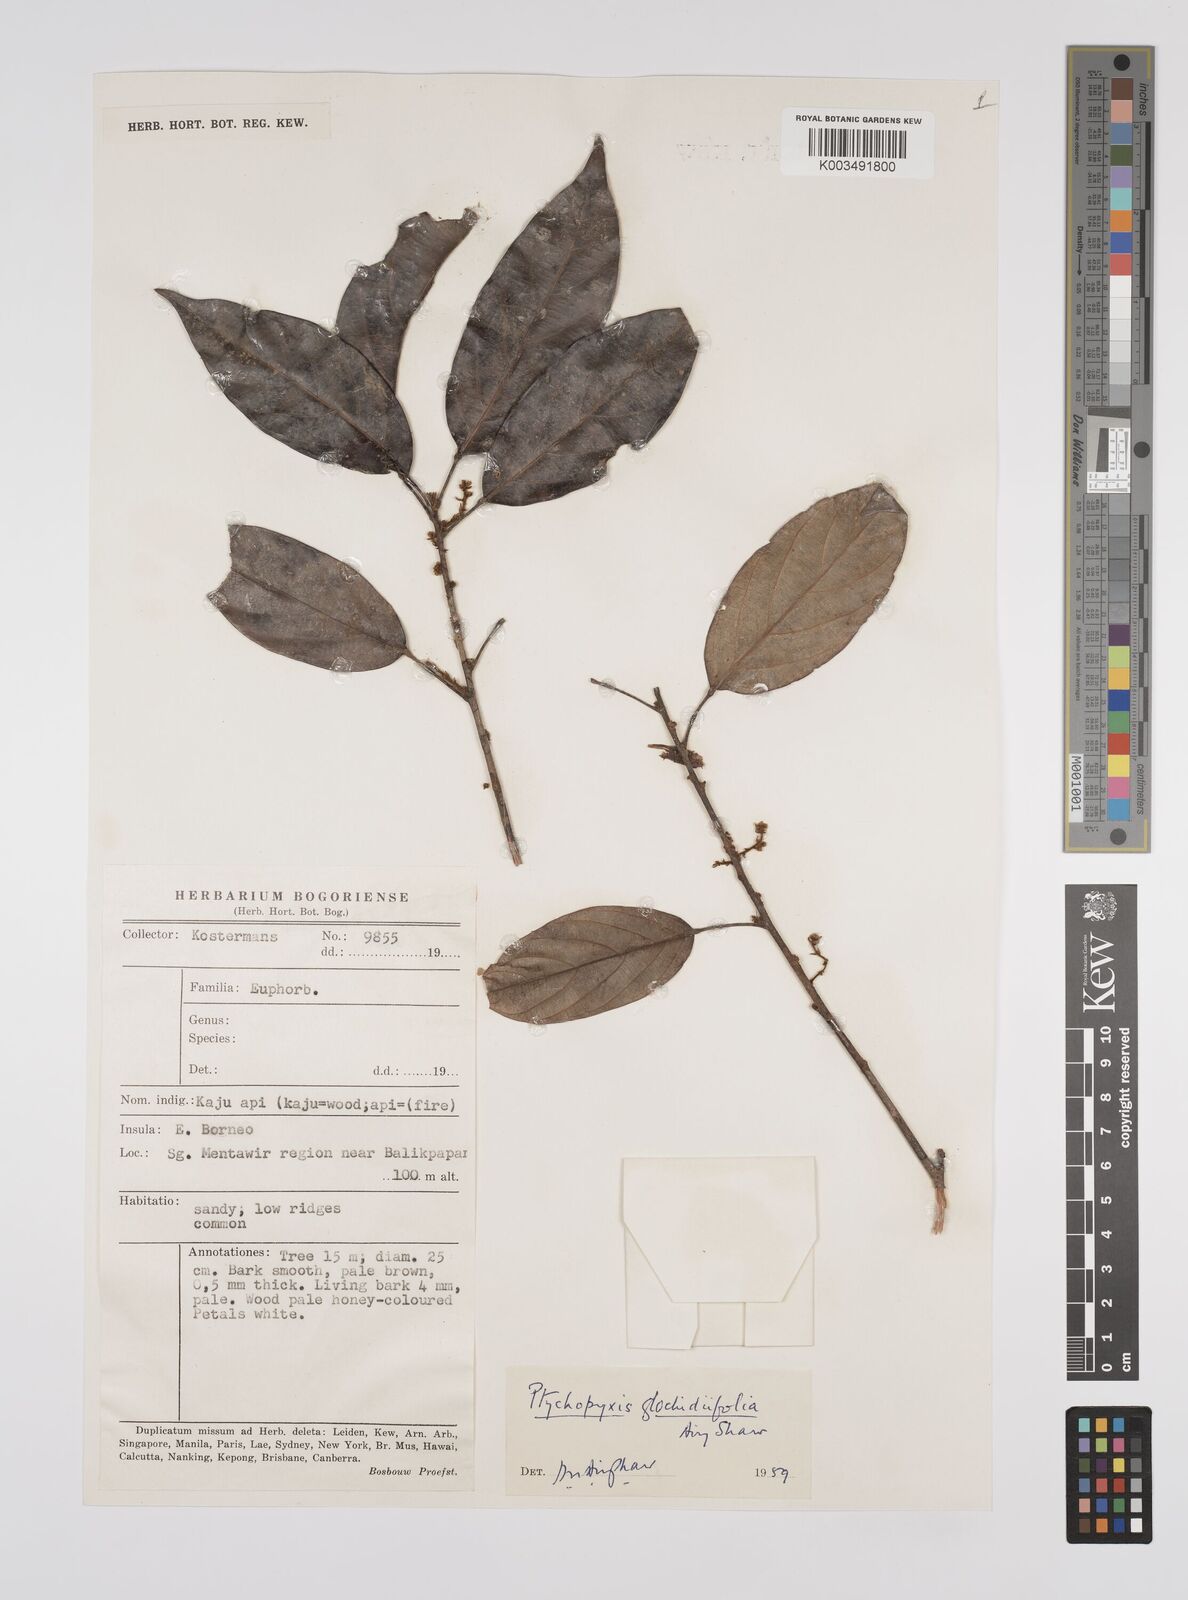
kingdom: Plantae
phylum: Tracheophyta
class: Magnoliopsida
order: Malpighiales
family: Euphorbiaceae
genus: Ptychopyxis
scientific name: Ptychopyxis glochidiifolia
